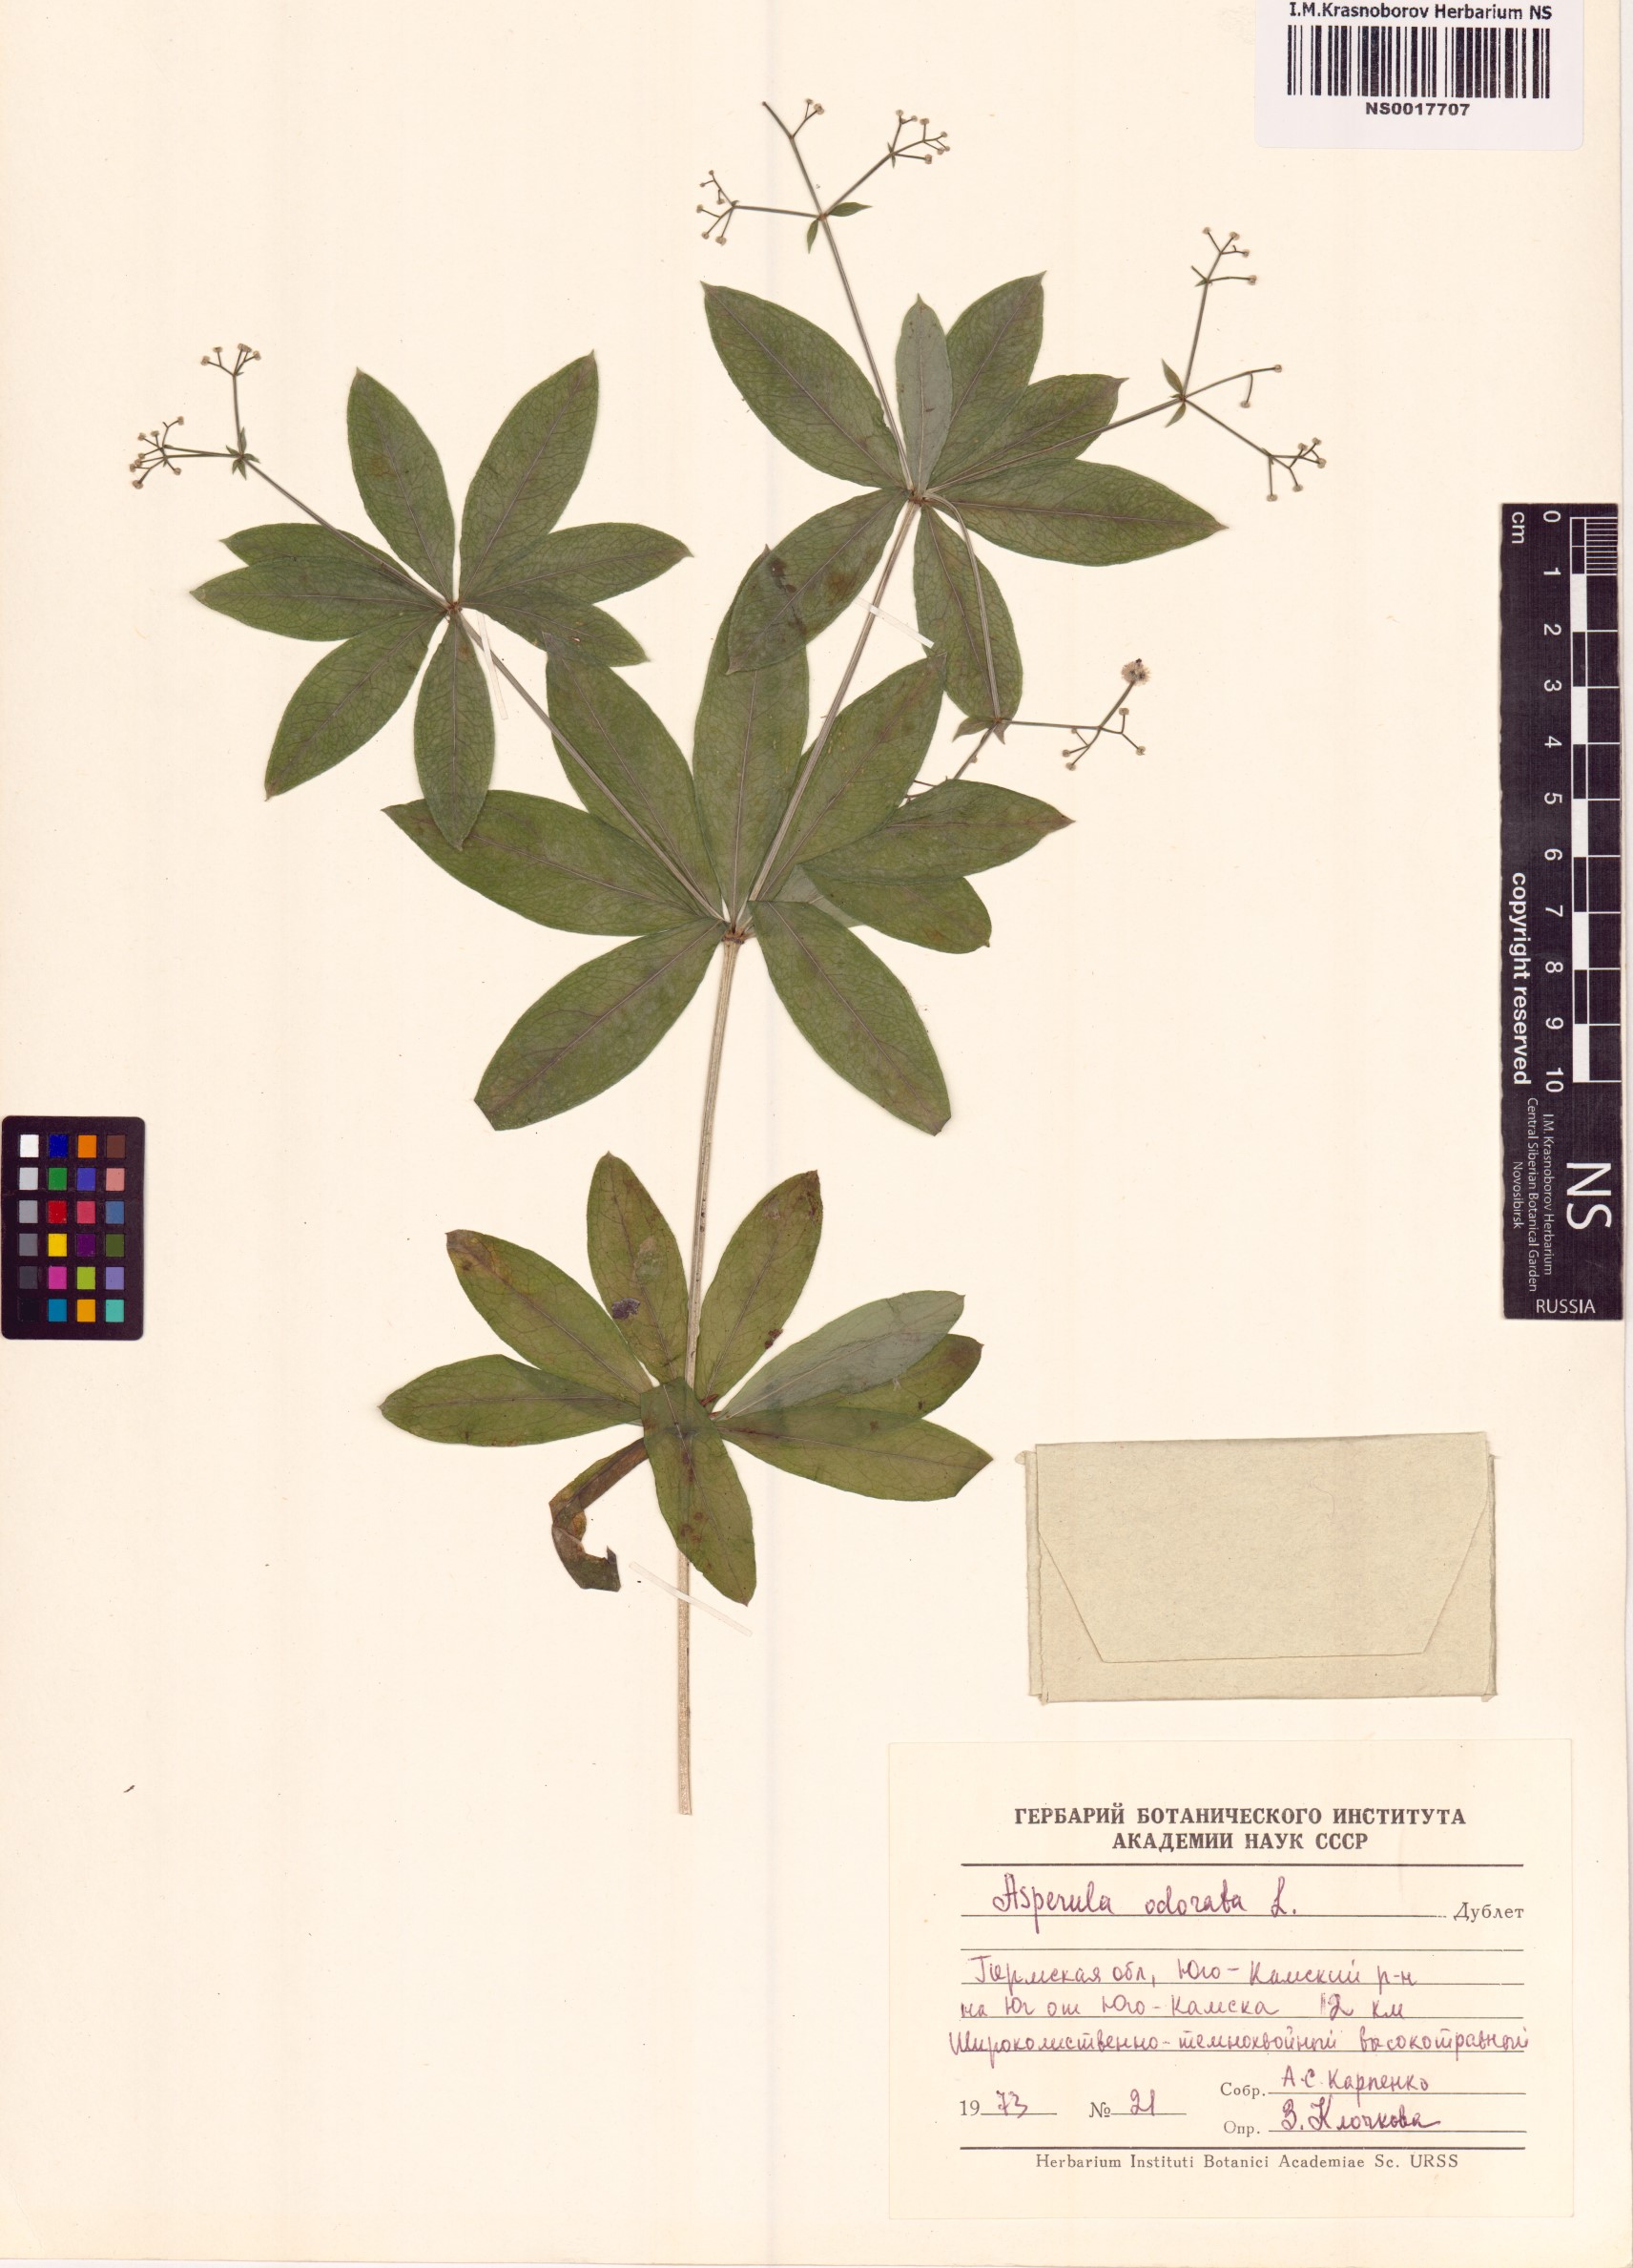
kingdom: Plantae
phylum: Tracheophyta
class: Magnoliopsida
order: Gentianales
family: Rubiaceae
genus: Galium
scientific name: Galium odoratum
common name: Sweet woodruff
